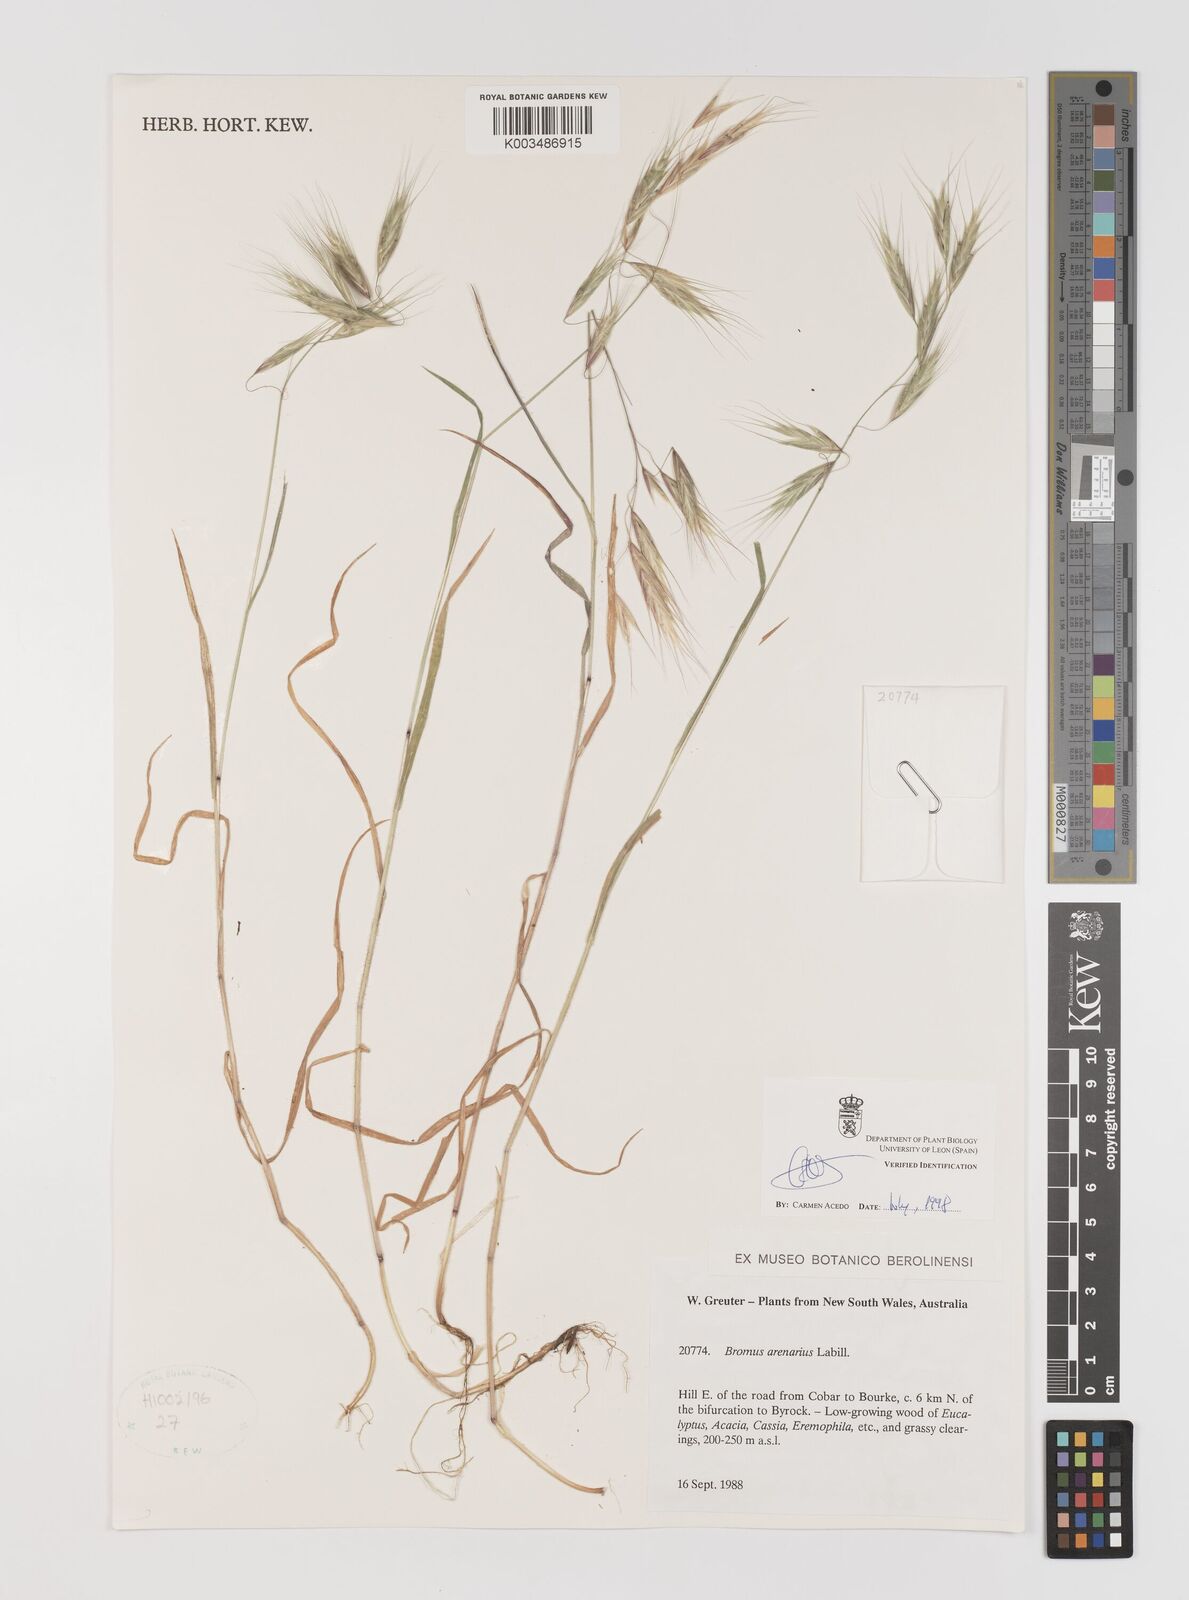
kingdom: Plantae
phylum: Tracheophyta
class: Liliopsida
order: Poales
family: Poaceae
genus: Bromus
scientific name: Bromus arenarius
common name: Australian brome
